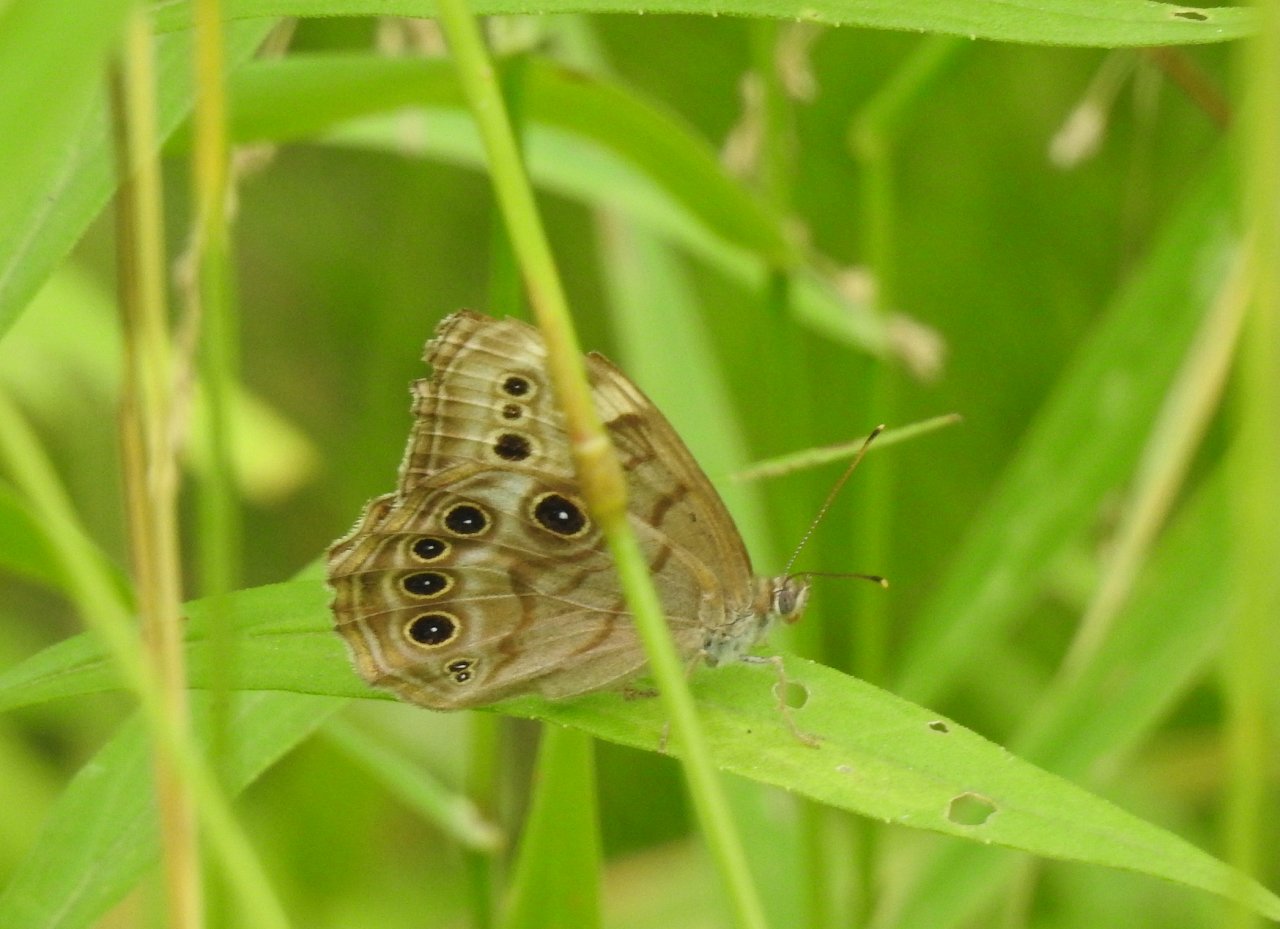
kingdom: Animalia
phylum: Arthropoda
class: Insecta
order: Lepidoptera
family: Nymphalidae
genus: Lethe
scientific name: Lethe anthedon
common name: Northern Pearly-Eye
